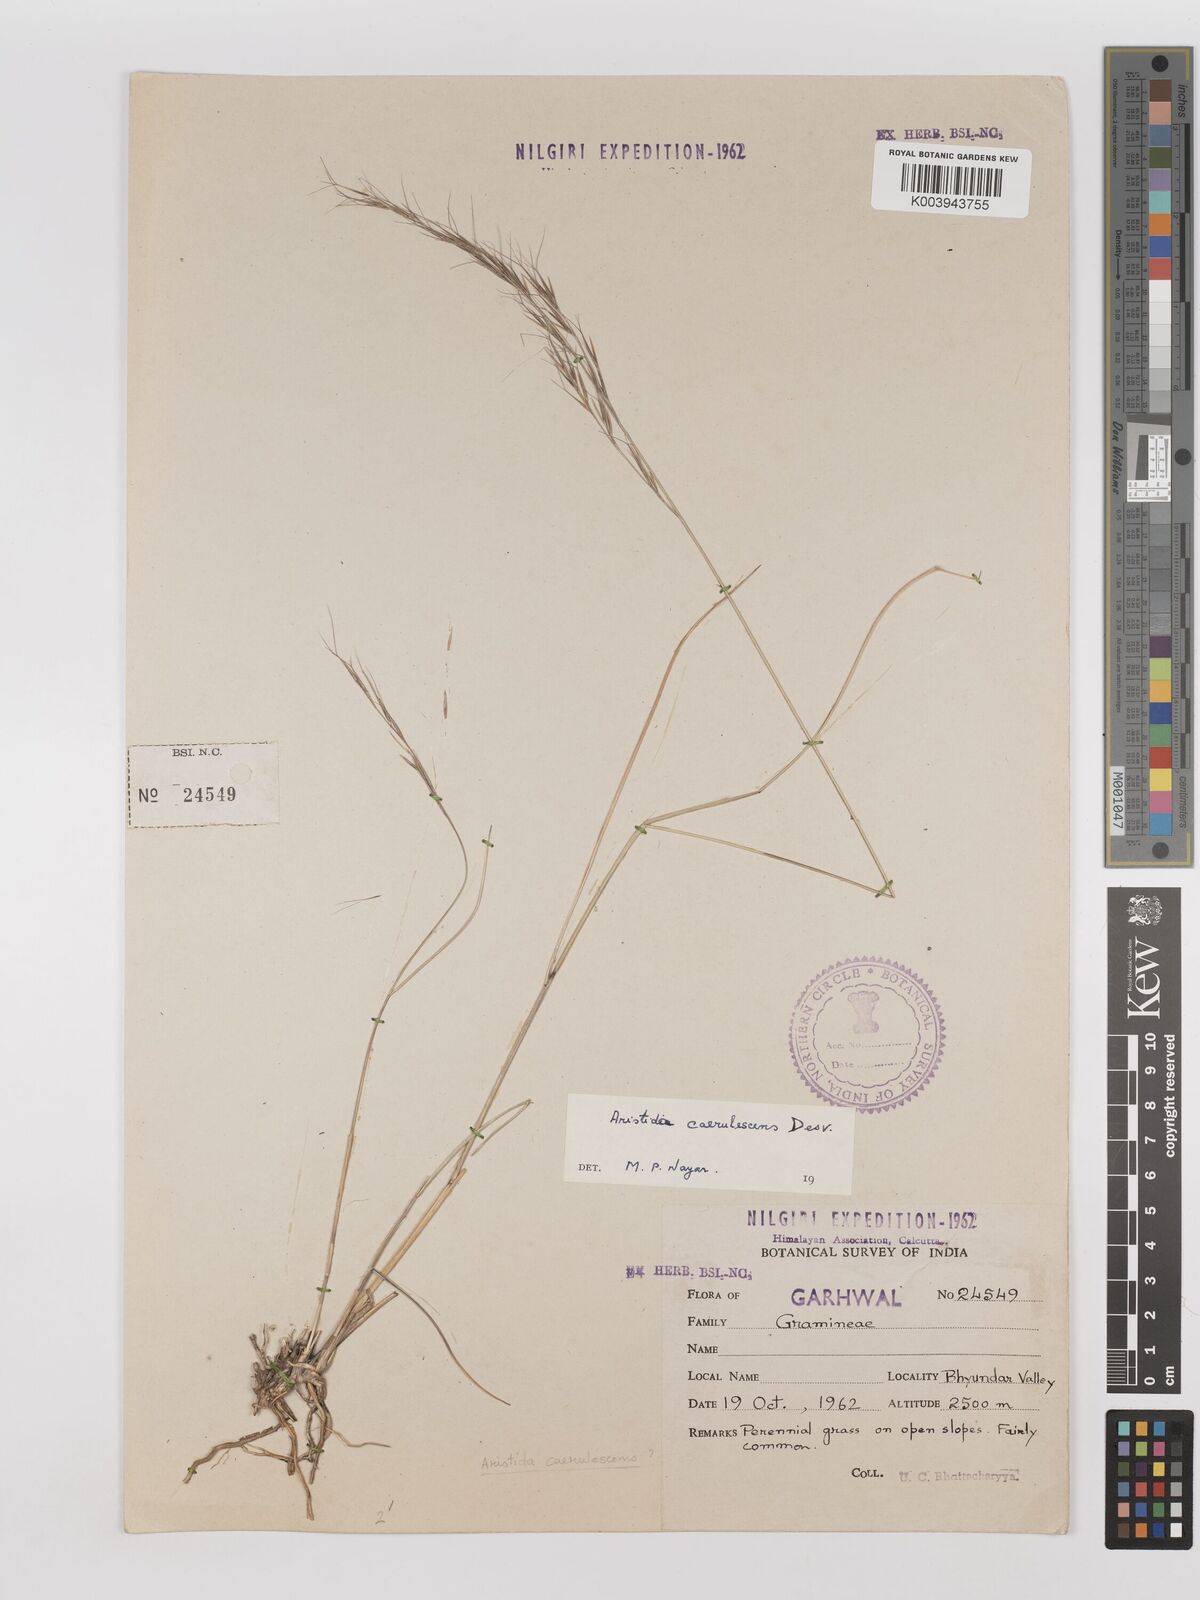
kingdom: Plantae
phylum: Tracheophyta
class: Liliopsida
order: Poales
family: Poaceae
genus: Aristida
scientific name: Aristida adscensionis
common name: Sixweeks threeawn
